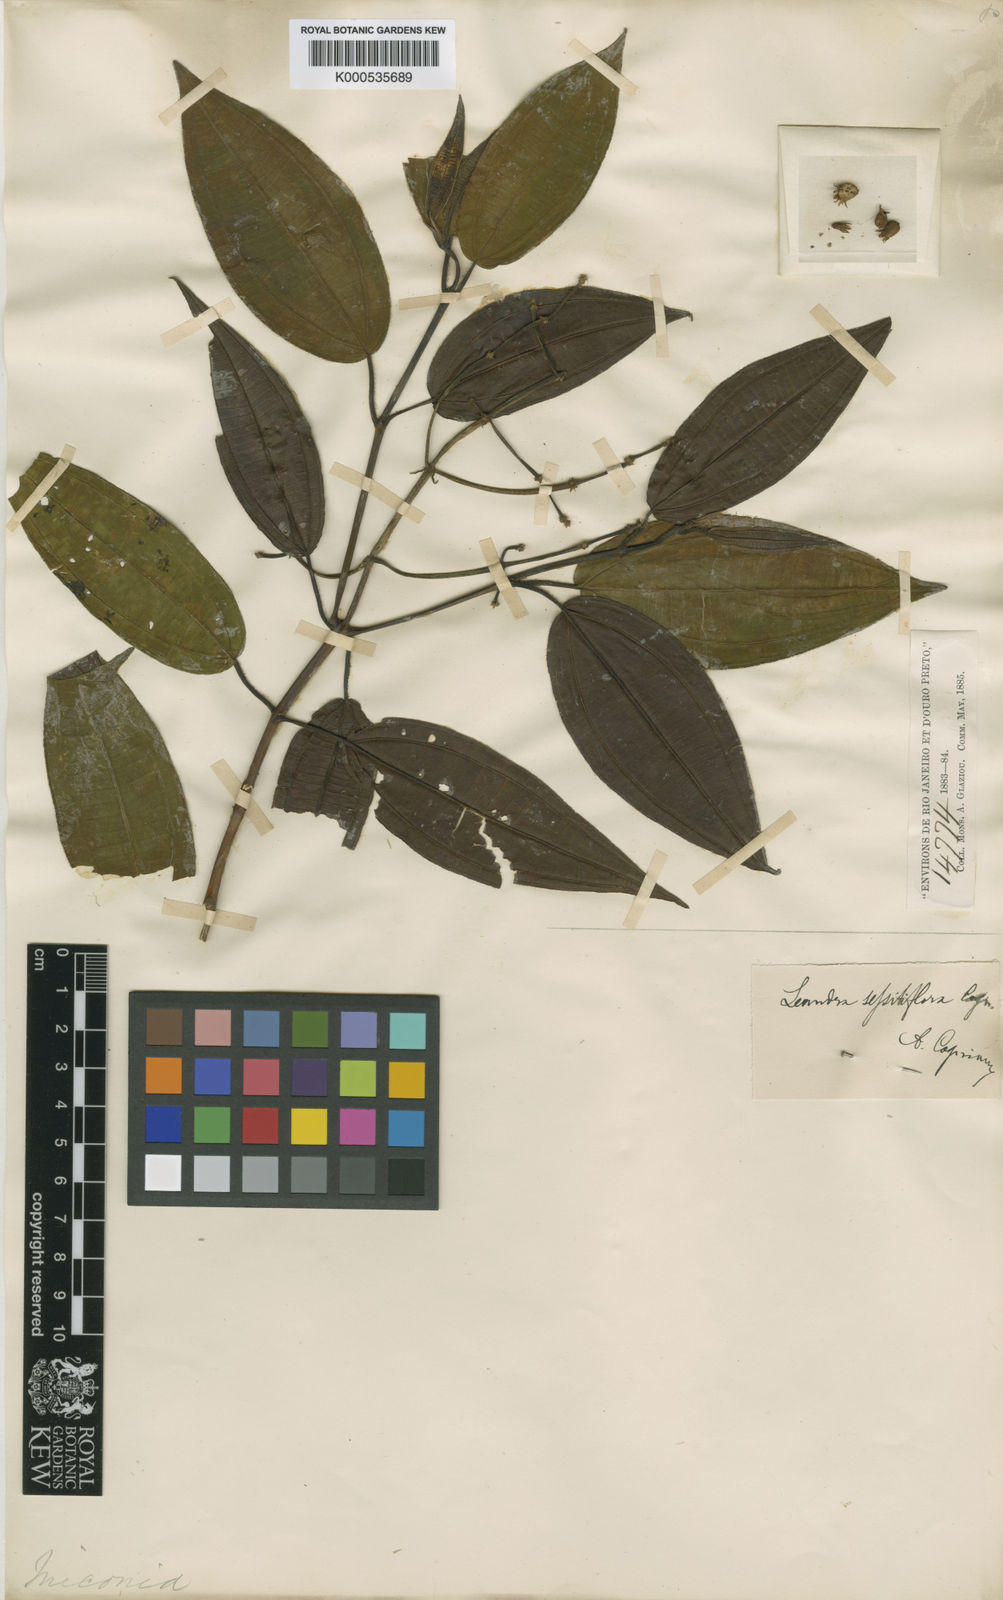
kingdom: Plantae
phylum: Tracheophyta
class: Magnoliopsida
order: Myrtales
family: Melastomataceae
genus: Miconia
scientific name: Miconia dolichostachya
